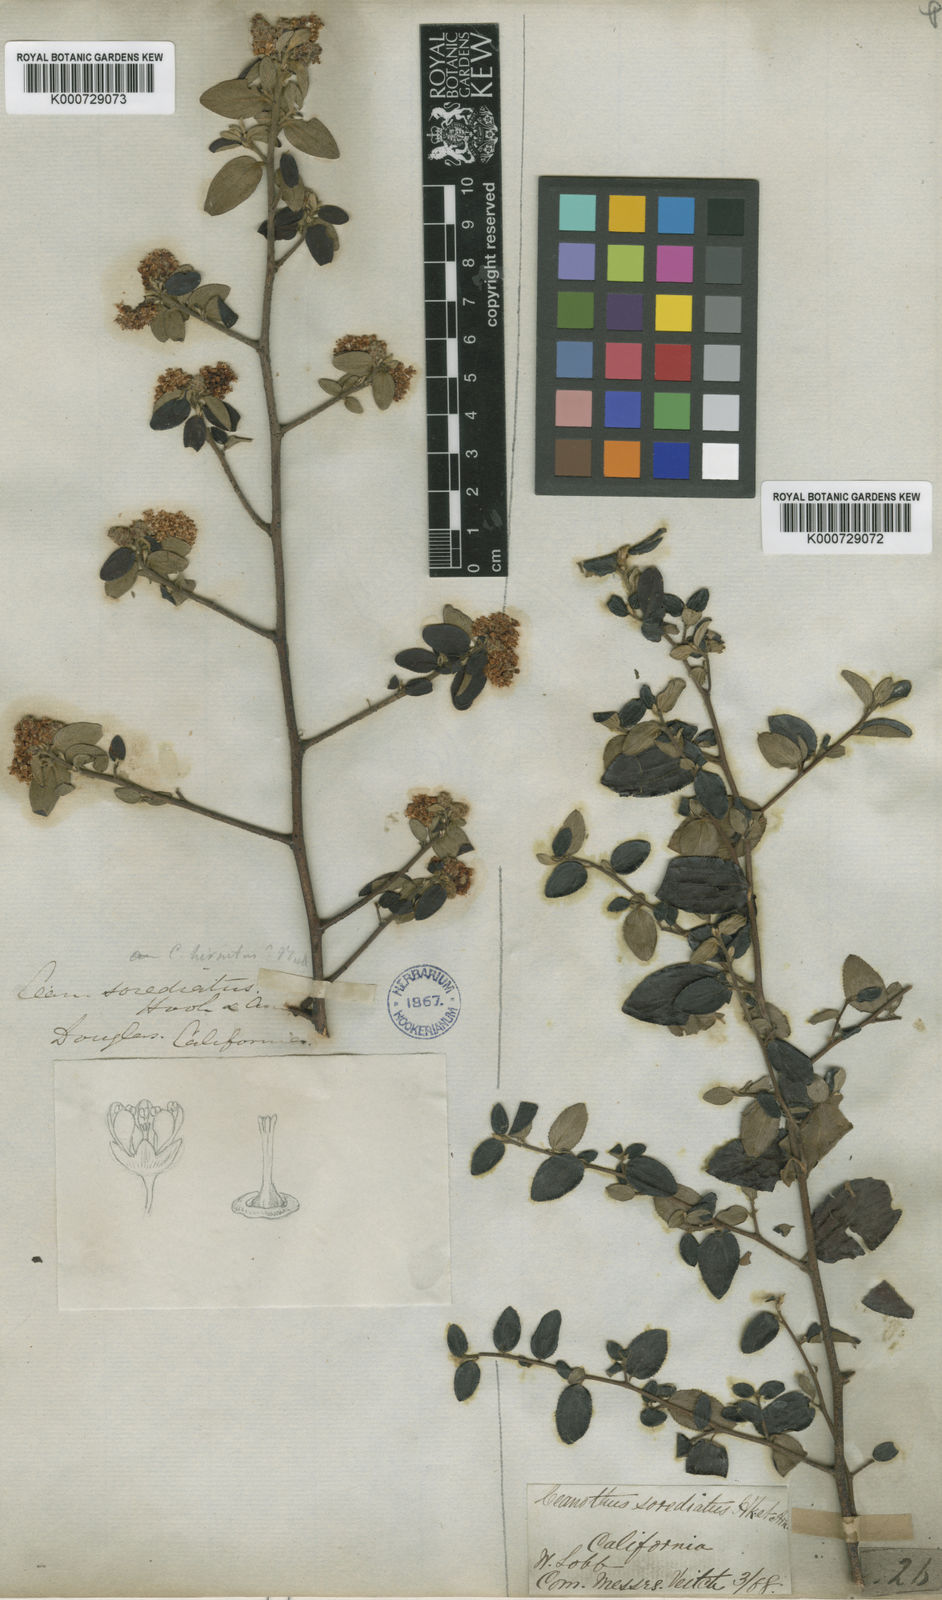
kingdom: Plantae
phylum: Tracheophyta
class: Magnoliopsida
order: Rosales
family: Rhamnaceae
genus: Ceanothus
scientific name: Ceanothus sorediatus
